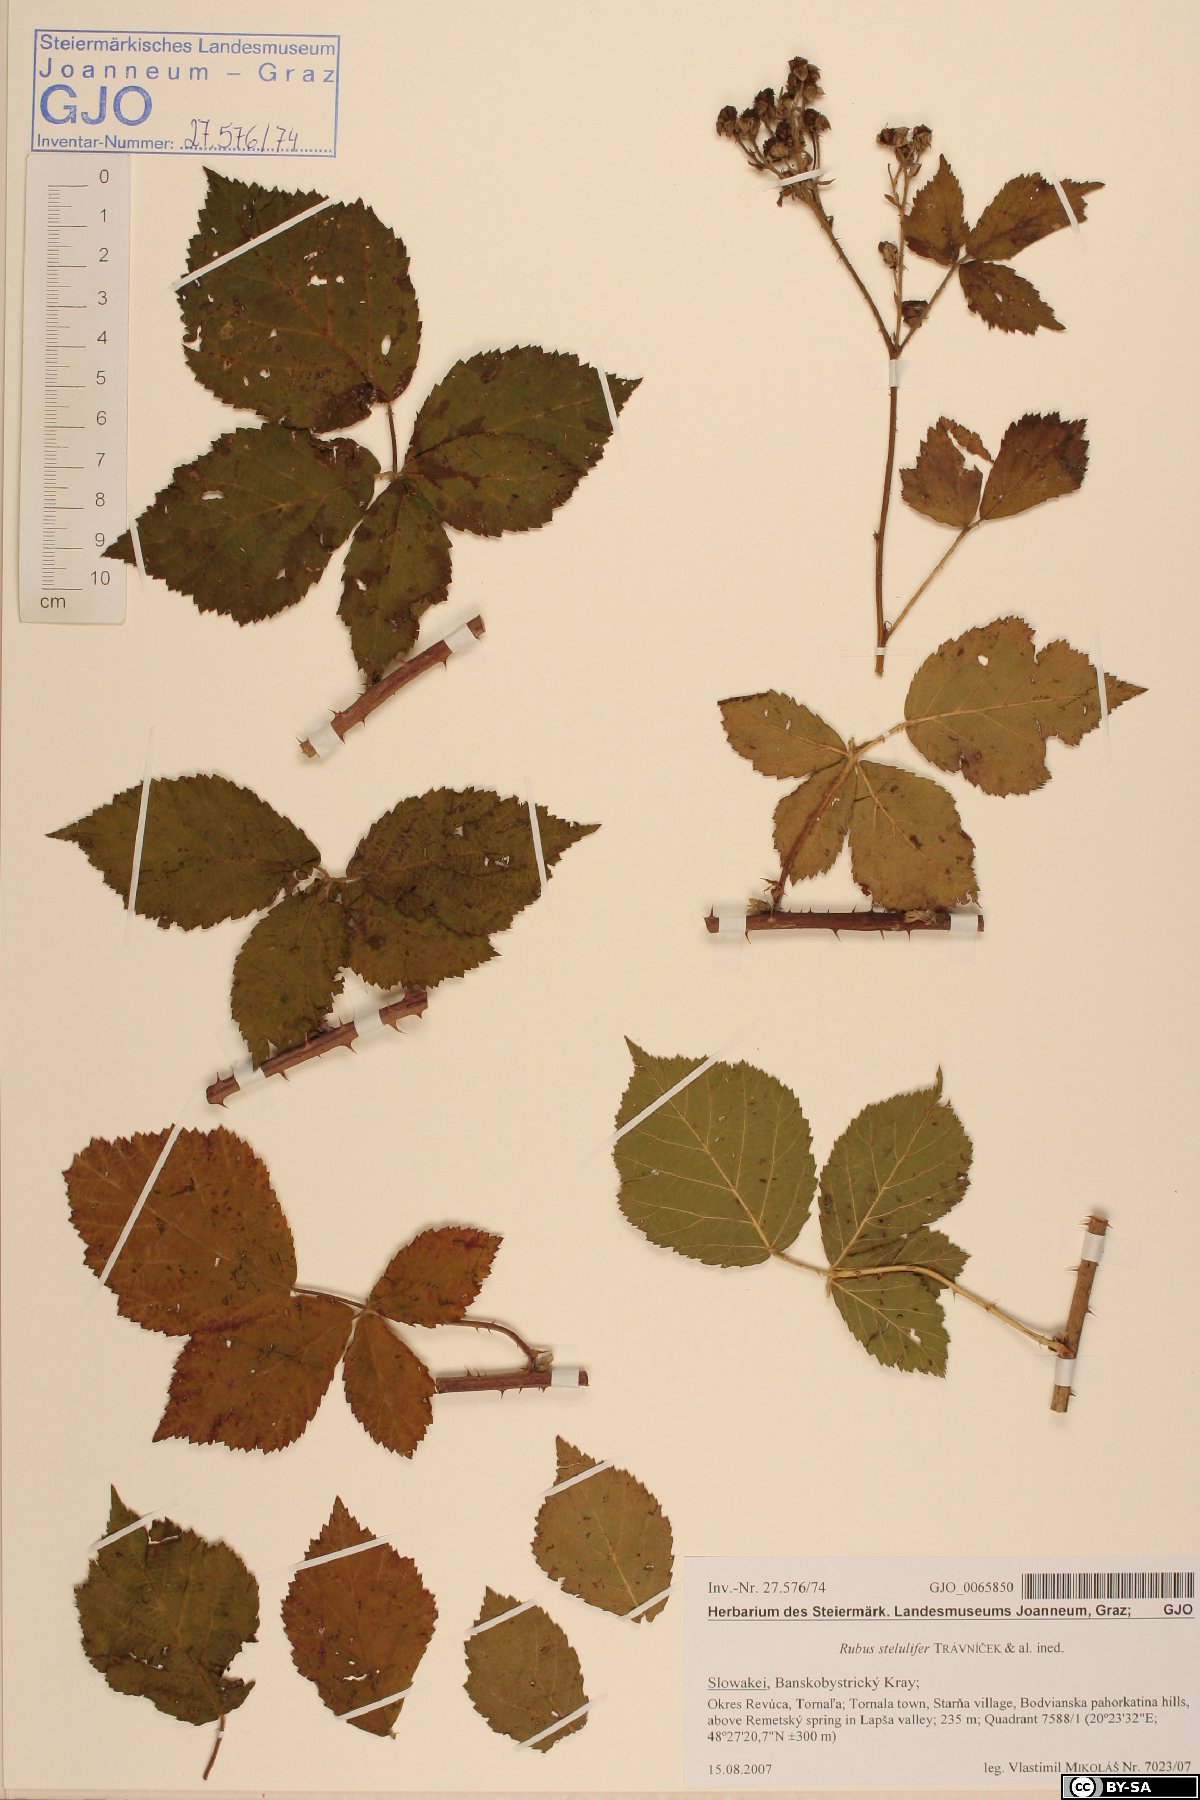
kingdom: Plantae
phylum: Tracheophyta
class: Magnoliopsida
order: Rosales
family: Rosaceae
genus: Rubus
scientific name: Rubus
